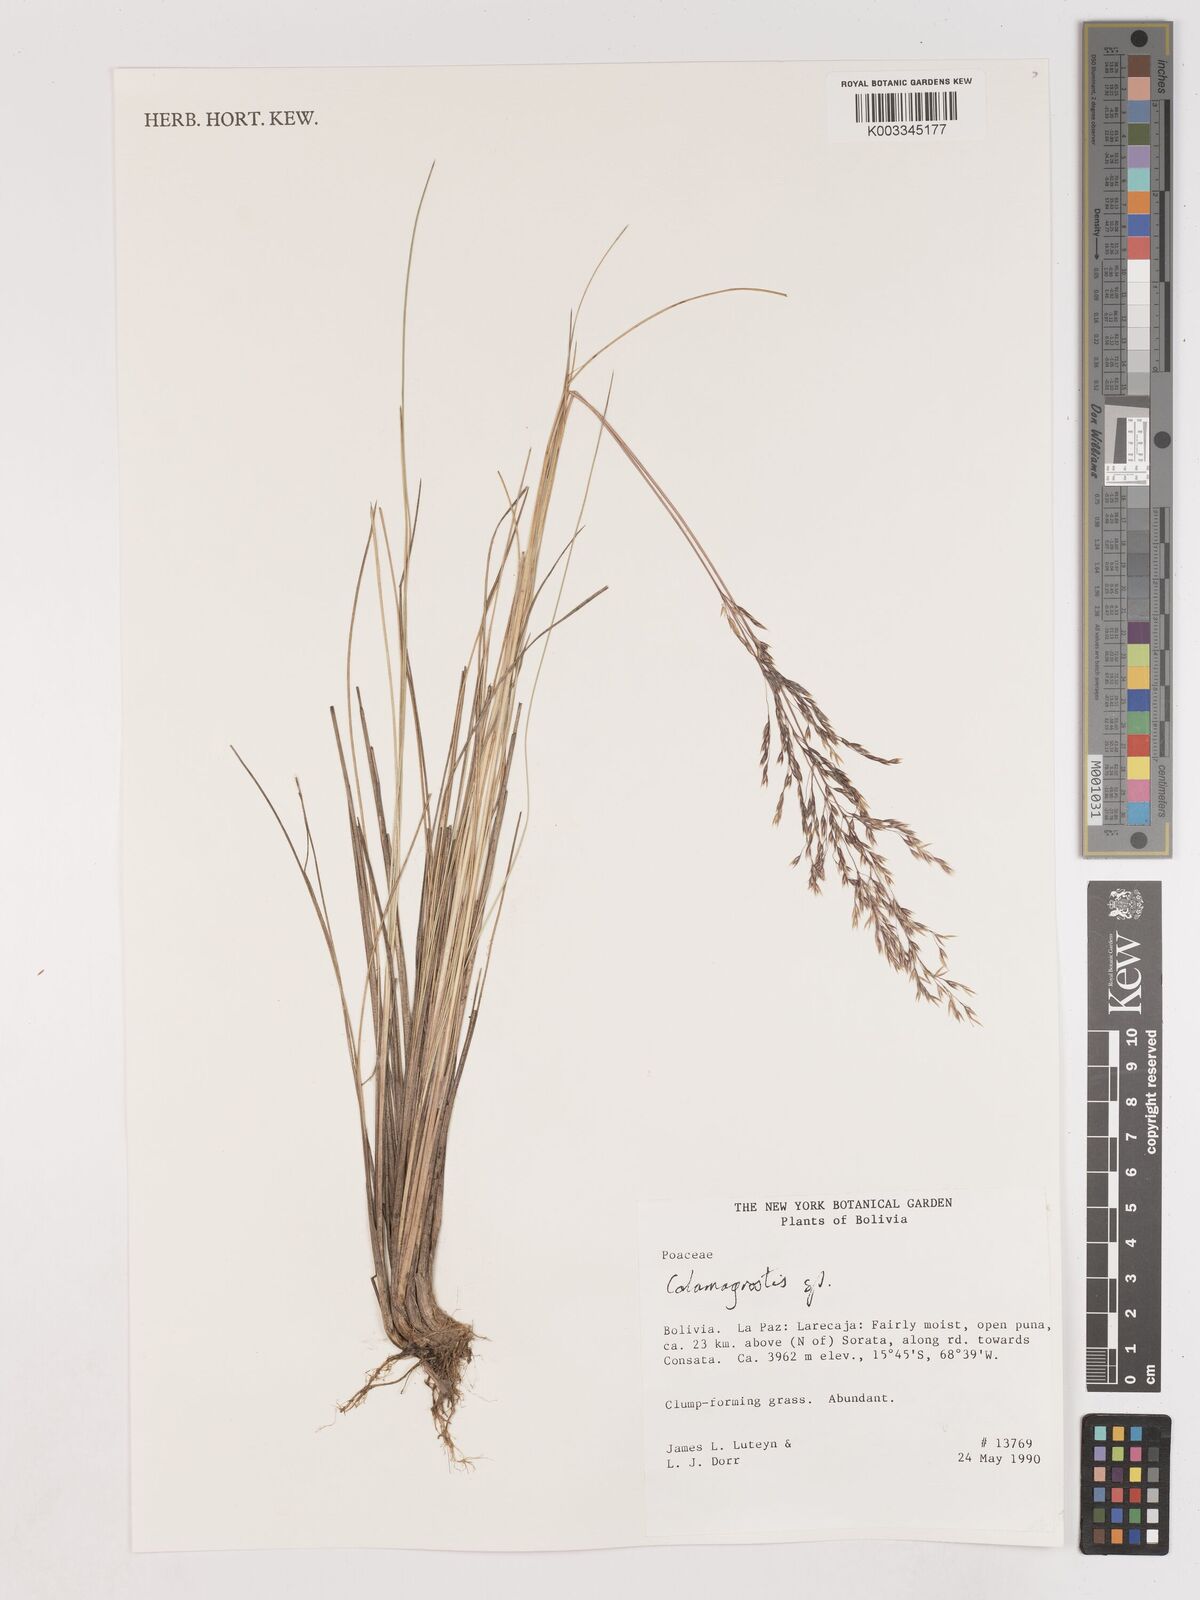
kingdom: Plantae
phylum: Tracheophyta
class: Liliopsida
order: Poales
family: Poaceae
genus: Calamagrostis
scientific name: Calamagrostis
